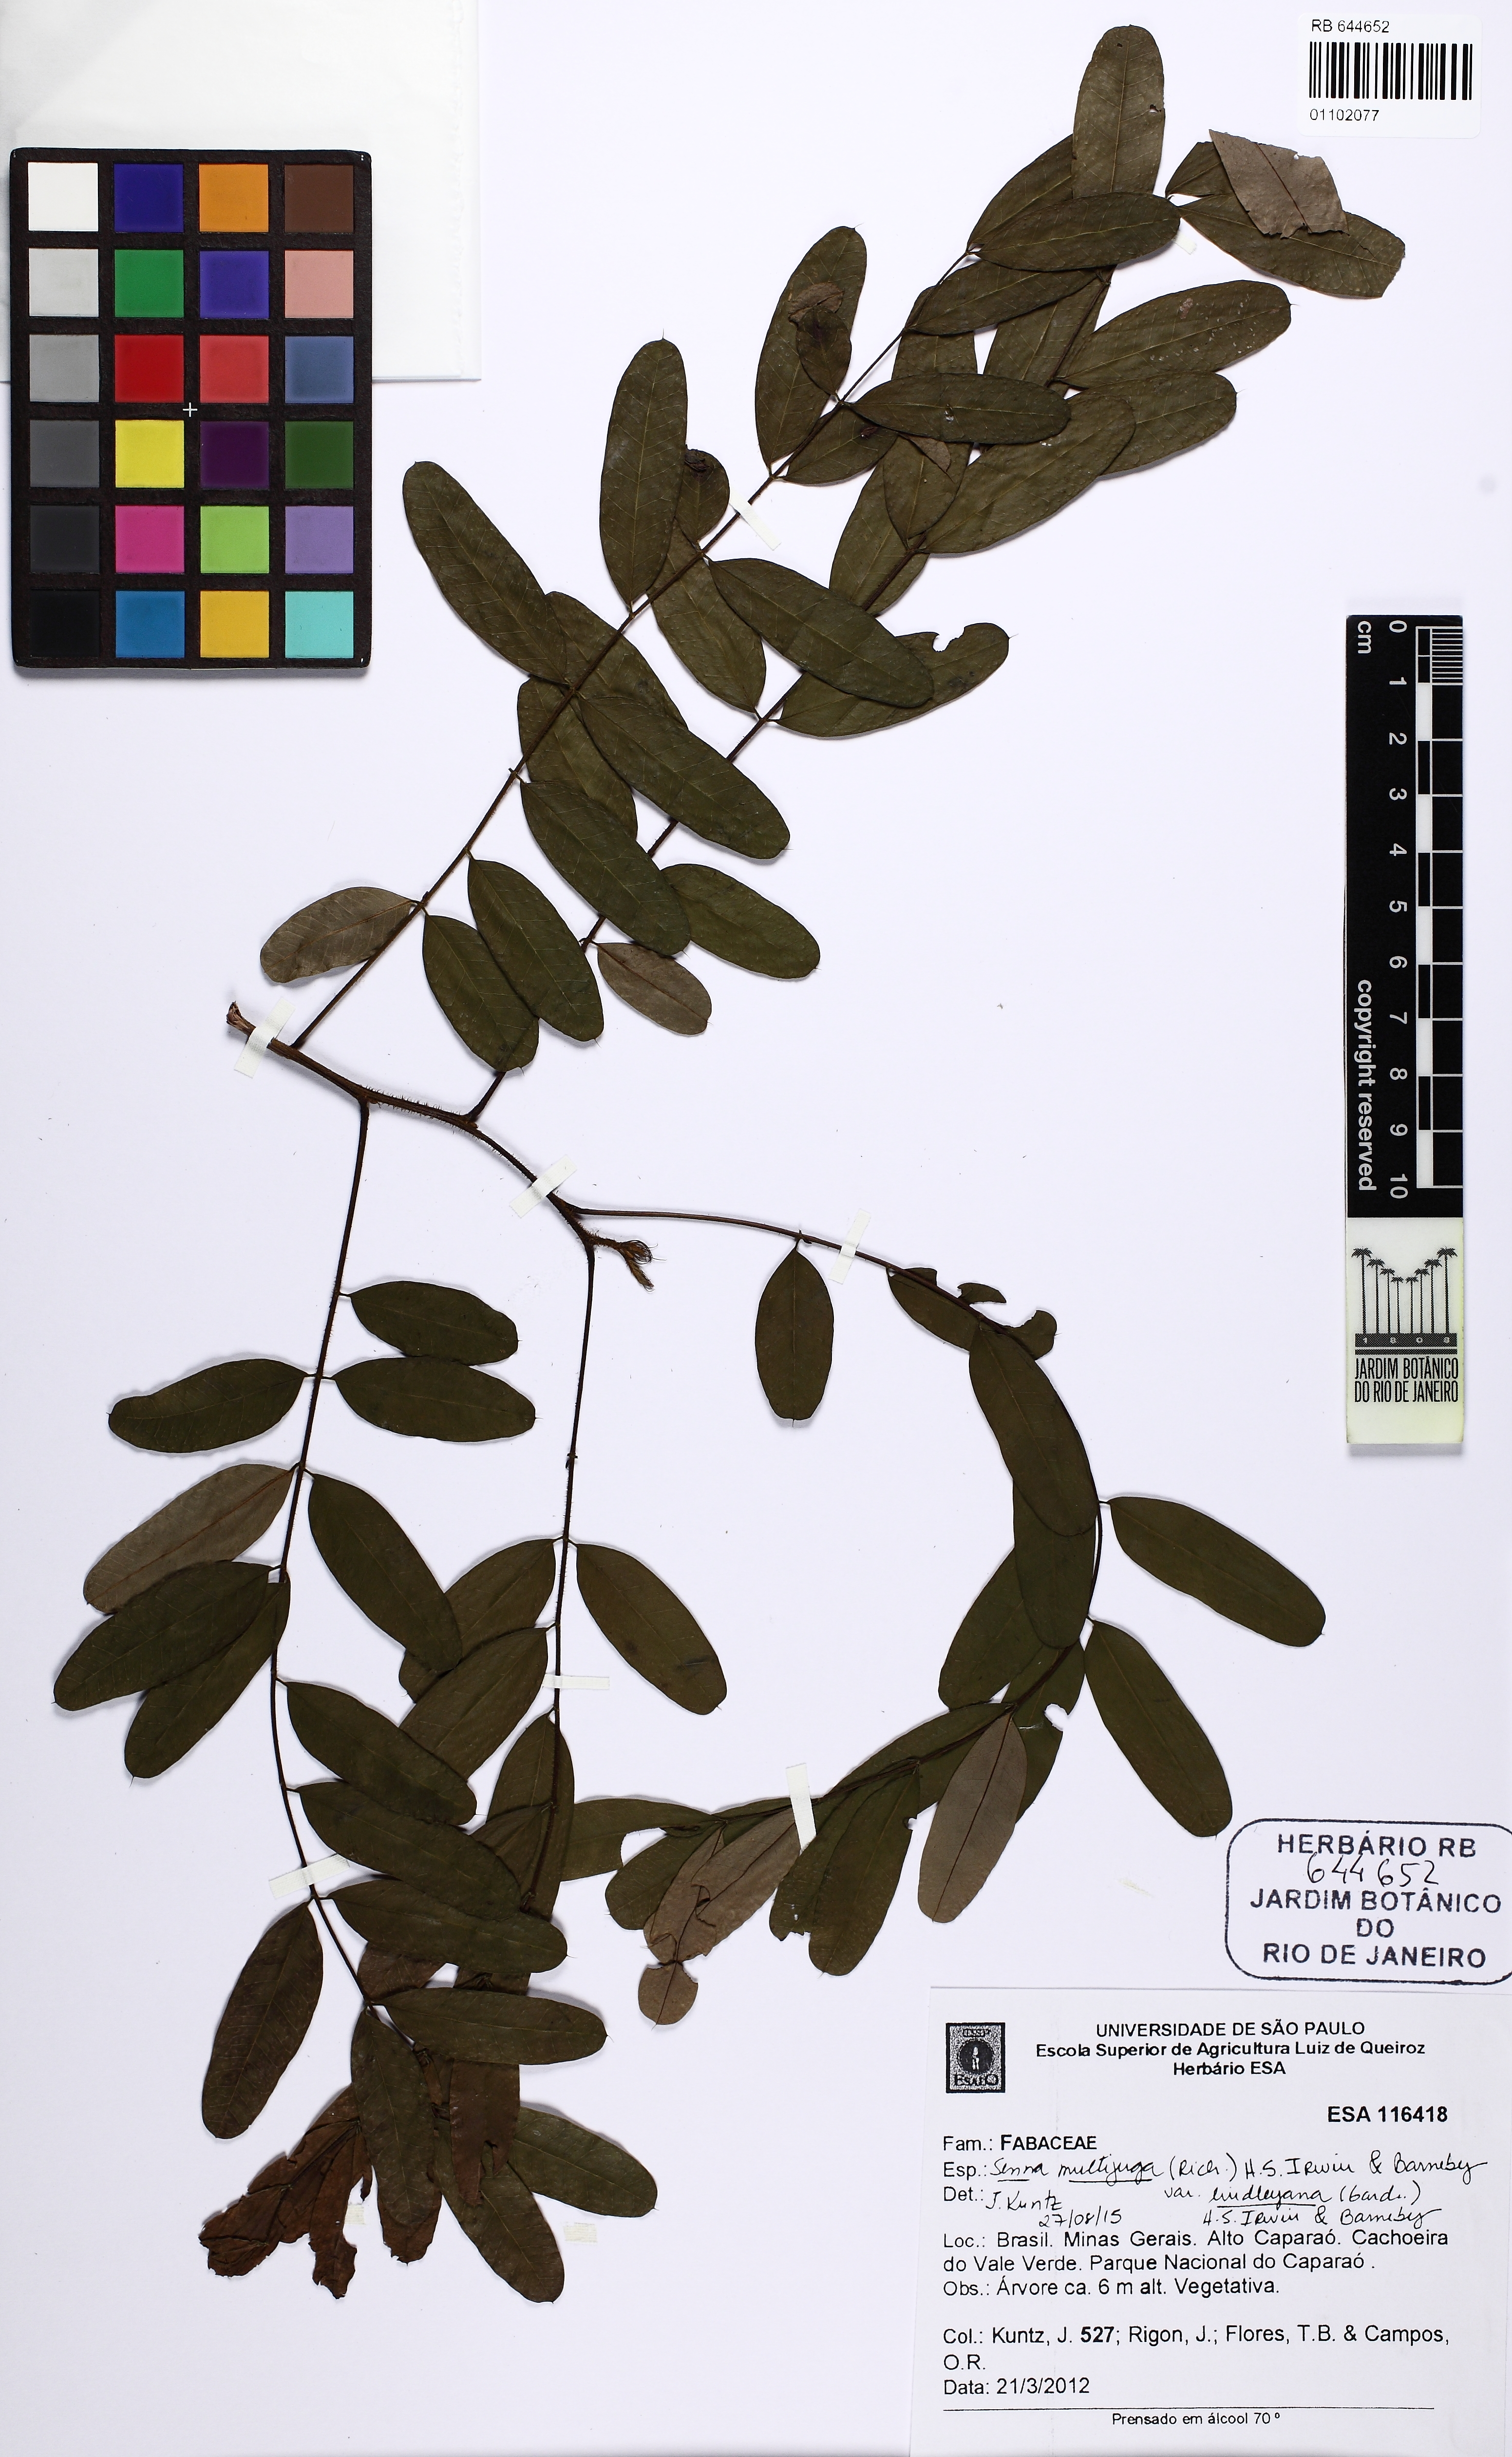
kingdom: Plantae
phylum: Tracheophyta
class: Magnoliopsida
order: Fabales
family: Fabaceae
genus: Senna
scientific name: Senna multijuga
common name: False sicklepod
